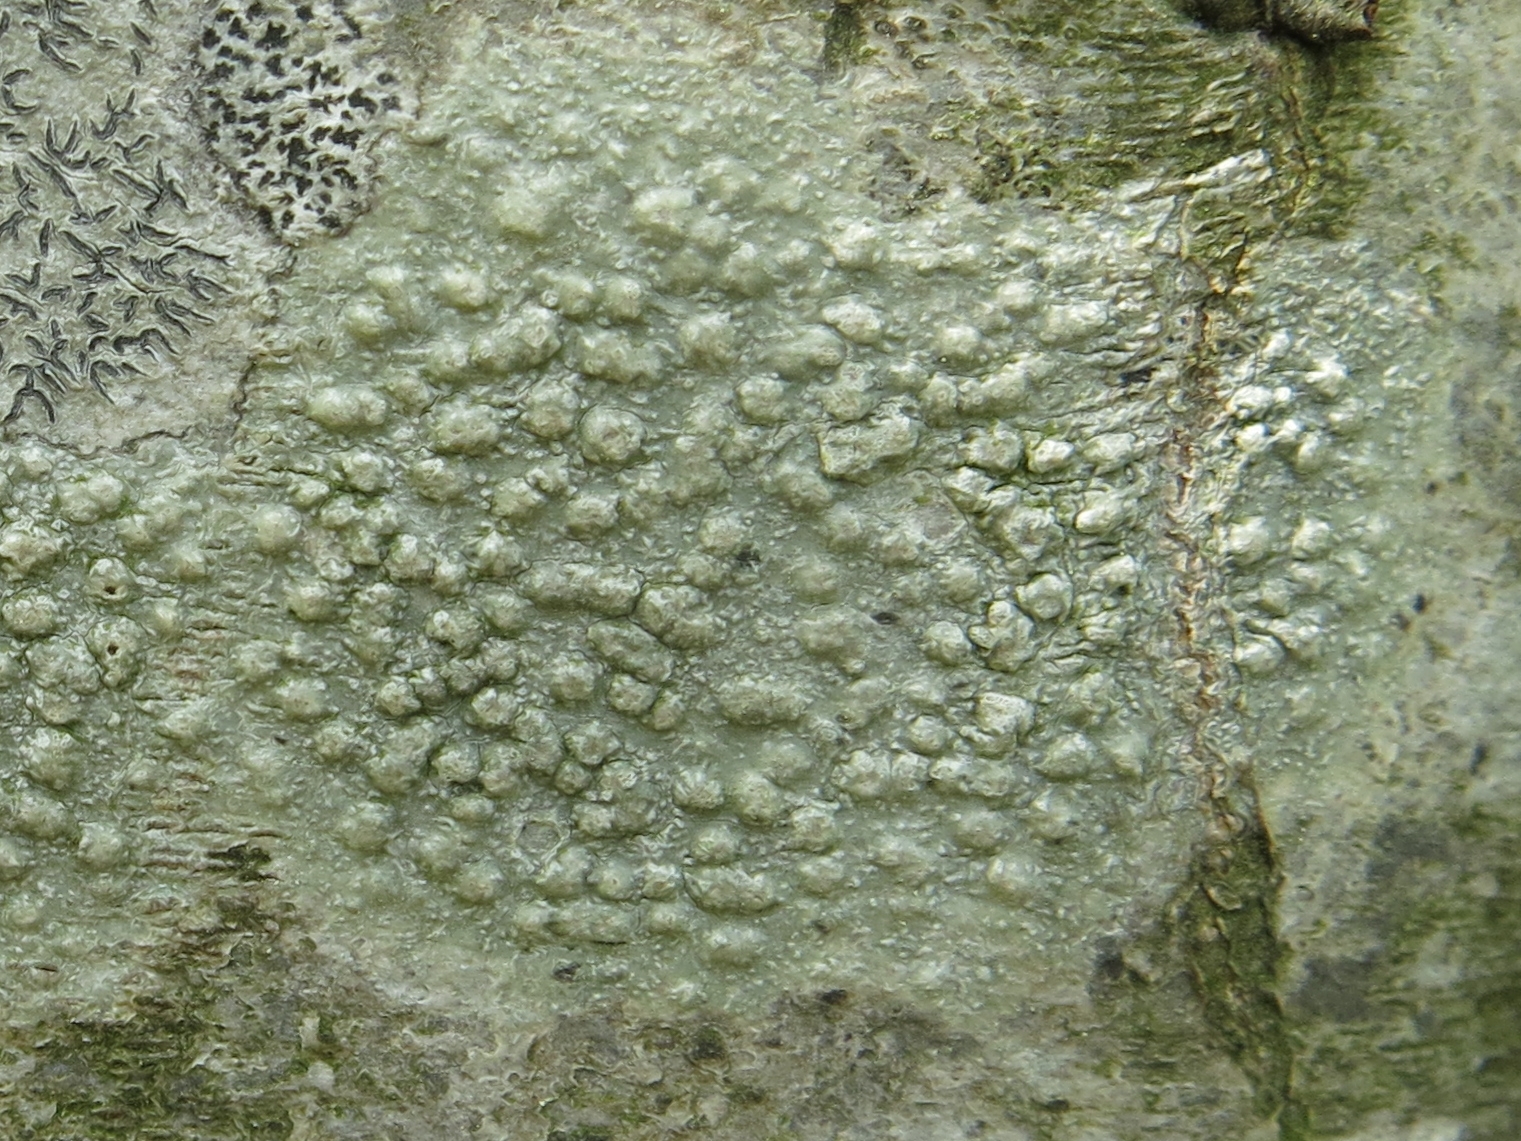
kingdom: Fungi
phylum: Ascomycota
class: Lecanoromycetes
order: Pertusariales
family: Pertusariaceae
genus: Pertusaria
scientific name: Pertusaria leioplaca
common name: tynd prikvortelav
